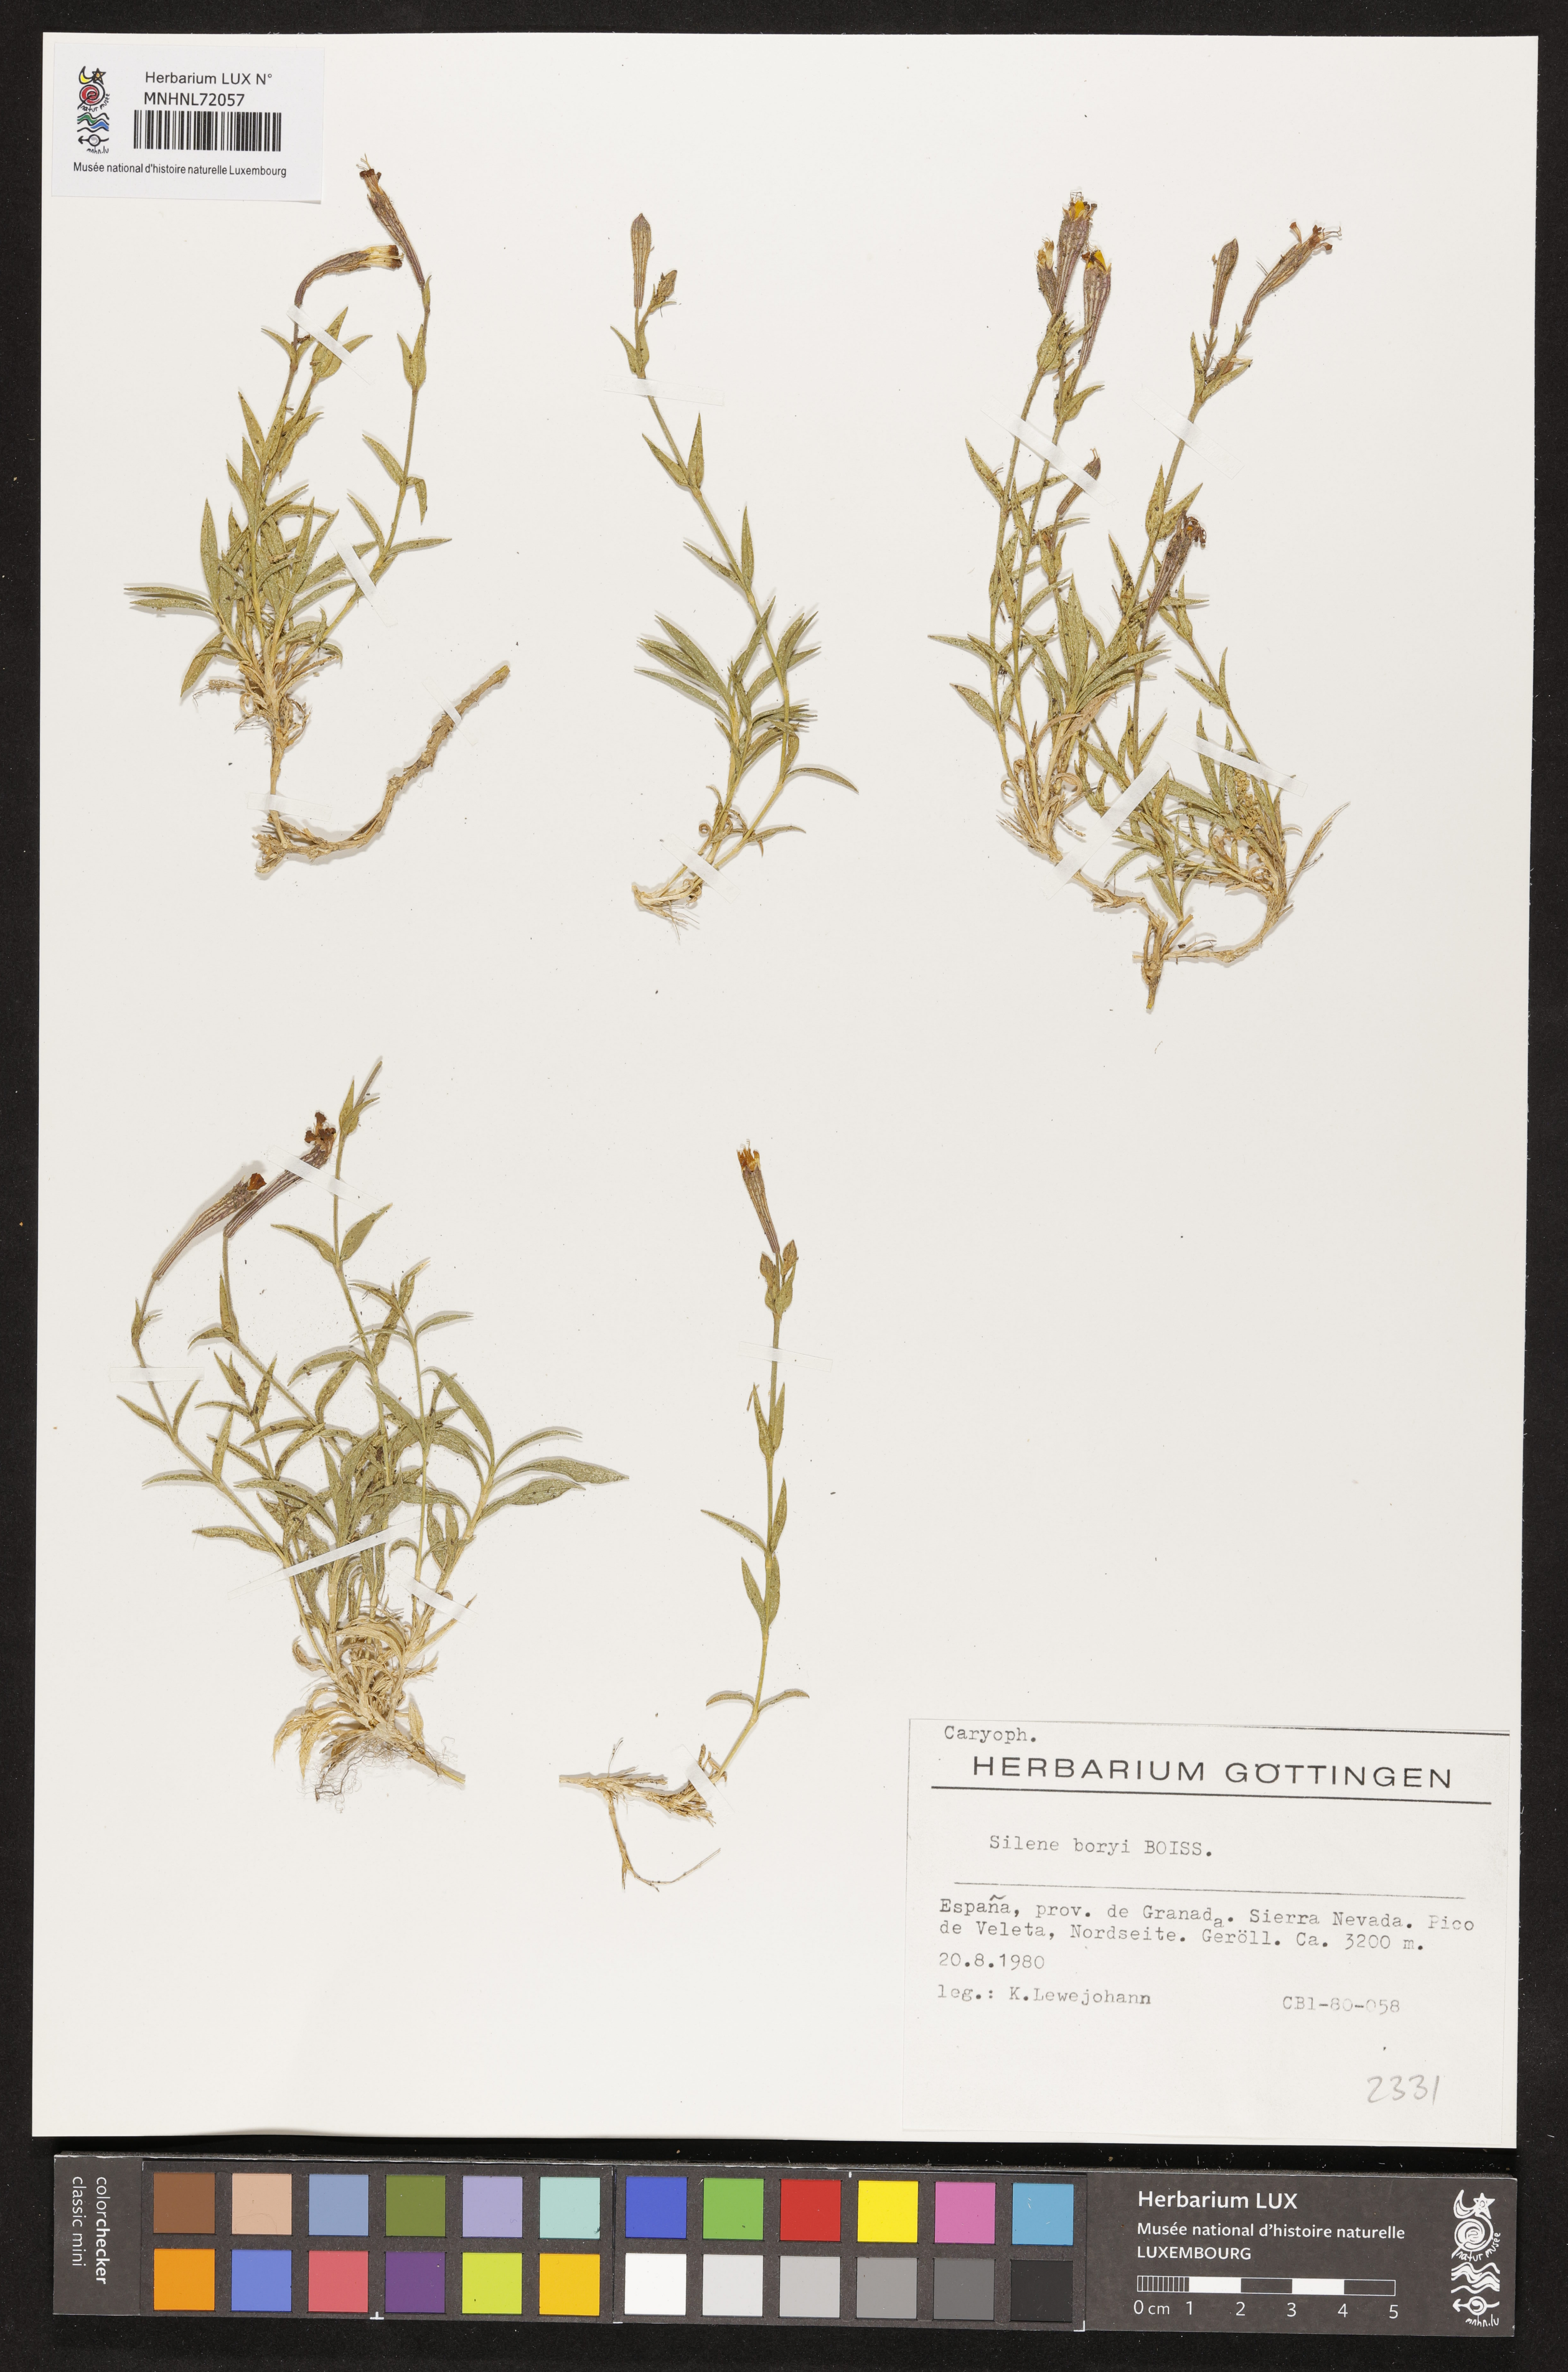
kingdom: Plantae
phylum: Tracheophyta
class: Magnoliopsida
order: Caryophyllales
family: Caryophyllaceae
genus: Silene
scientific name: Silene boryi
